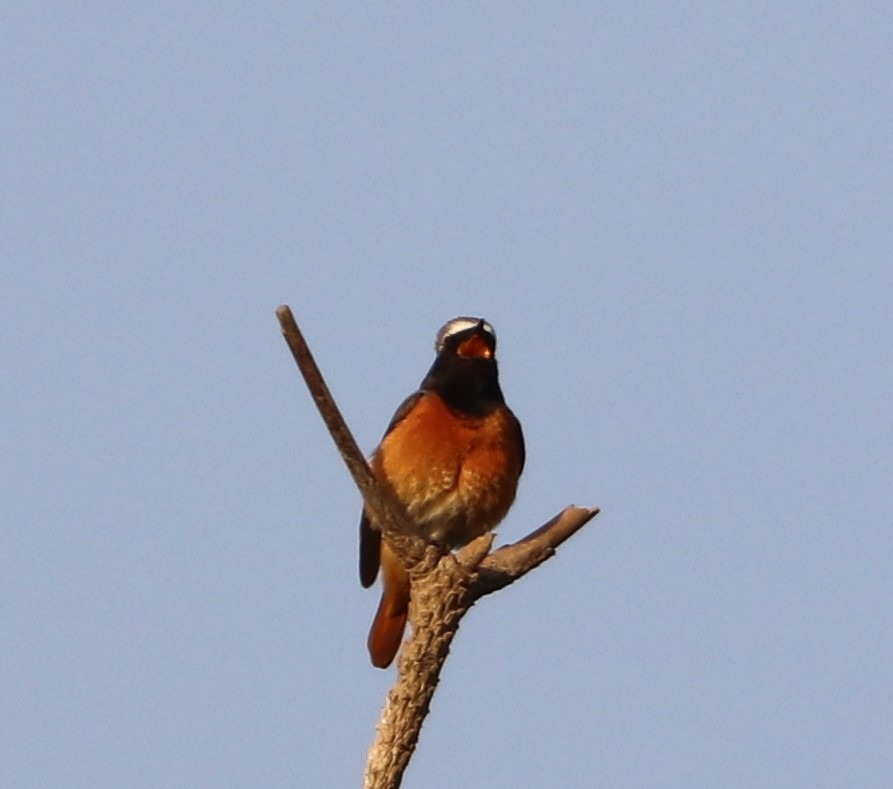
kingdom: Animalia
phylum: Chordata
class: Aves
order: Passeriformes
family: Muscicapidae
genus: Phoenicurus
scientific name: Phoenicurus phoenicurus
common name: Rødstjert
